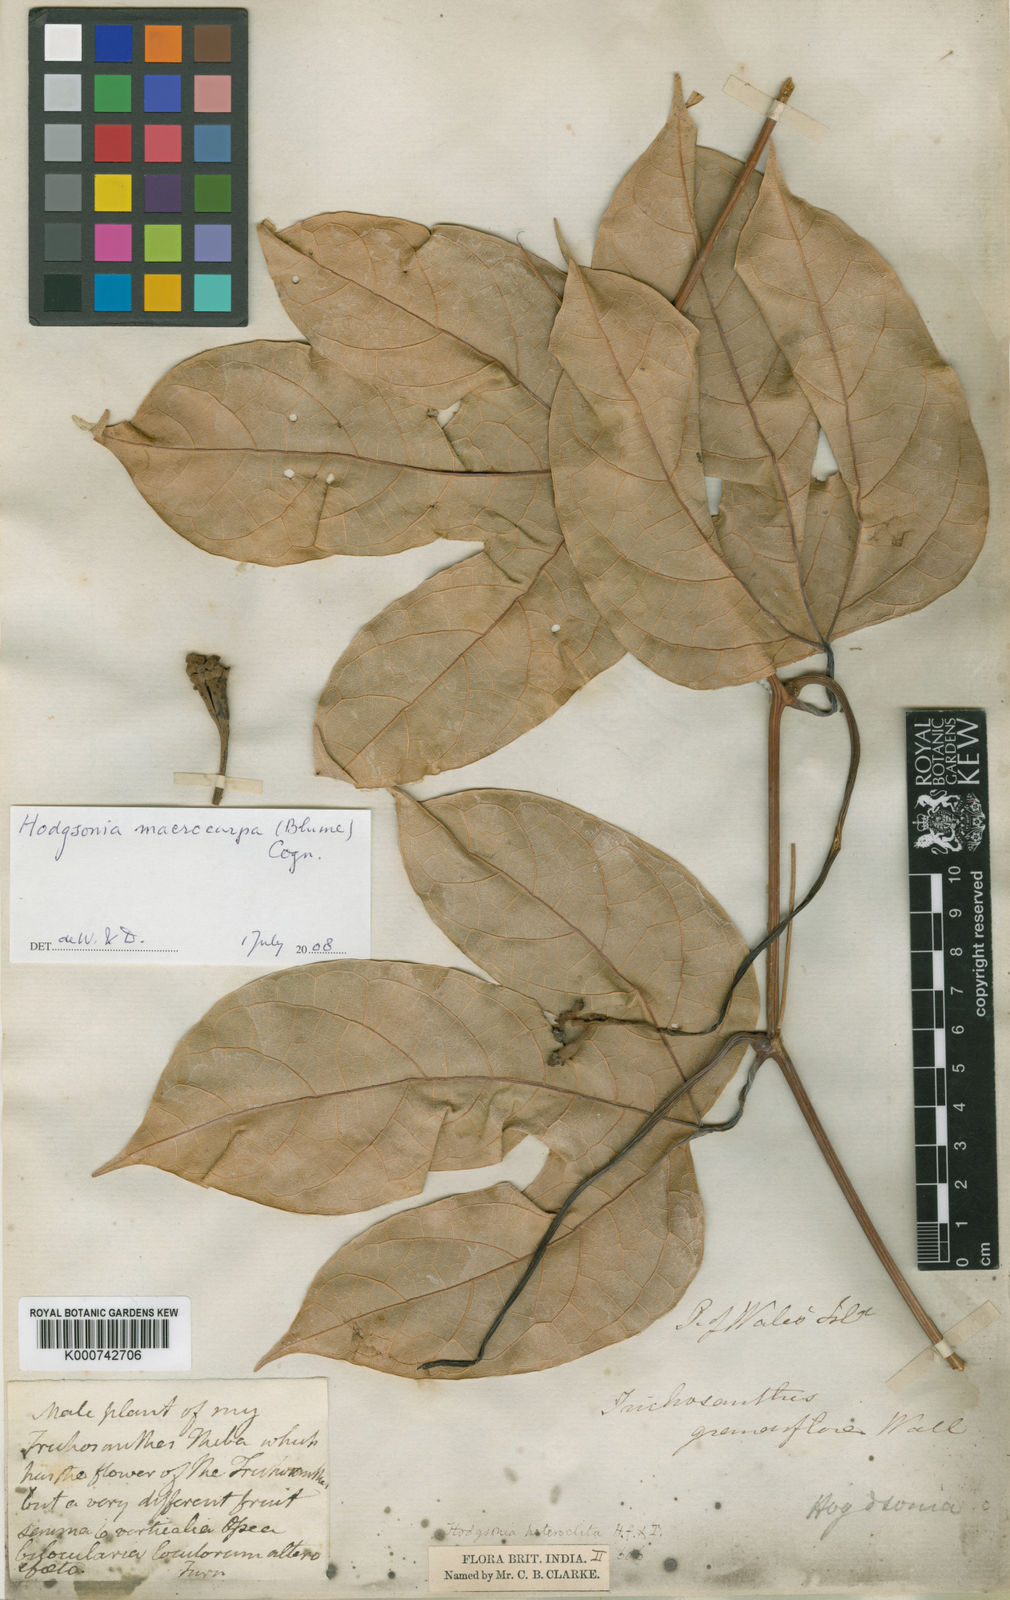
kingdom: Plantae
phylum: Tracheophyta
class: Magnoliopsida
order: Cucurbitales
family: Cucurbitaceae
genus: Hodgsonia
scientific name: Hodgsonia macrocarpa
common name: Chinese lardfruit
